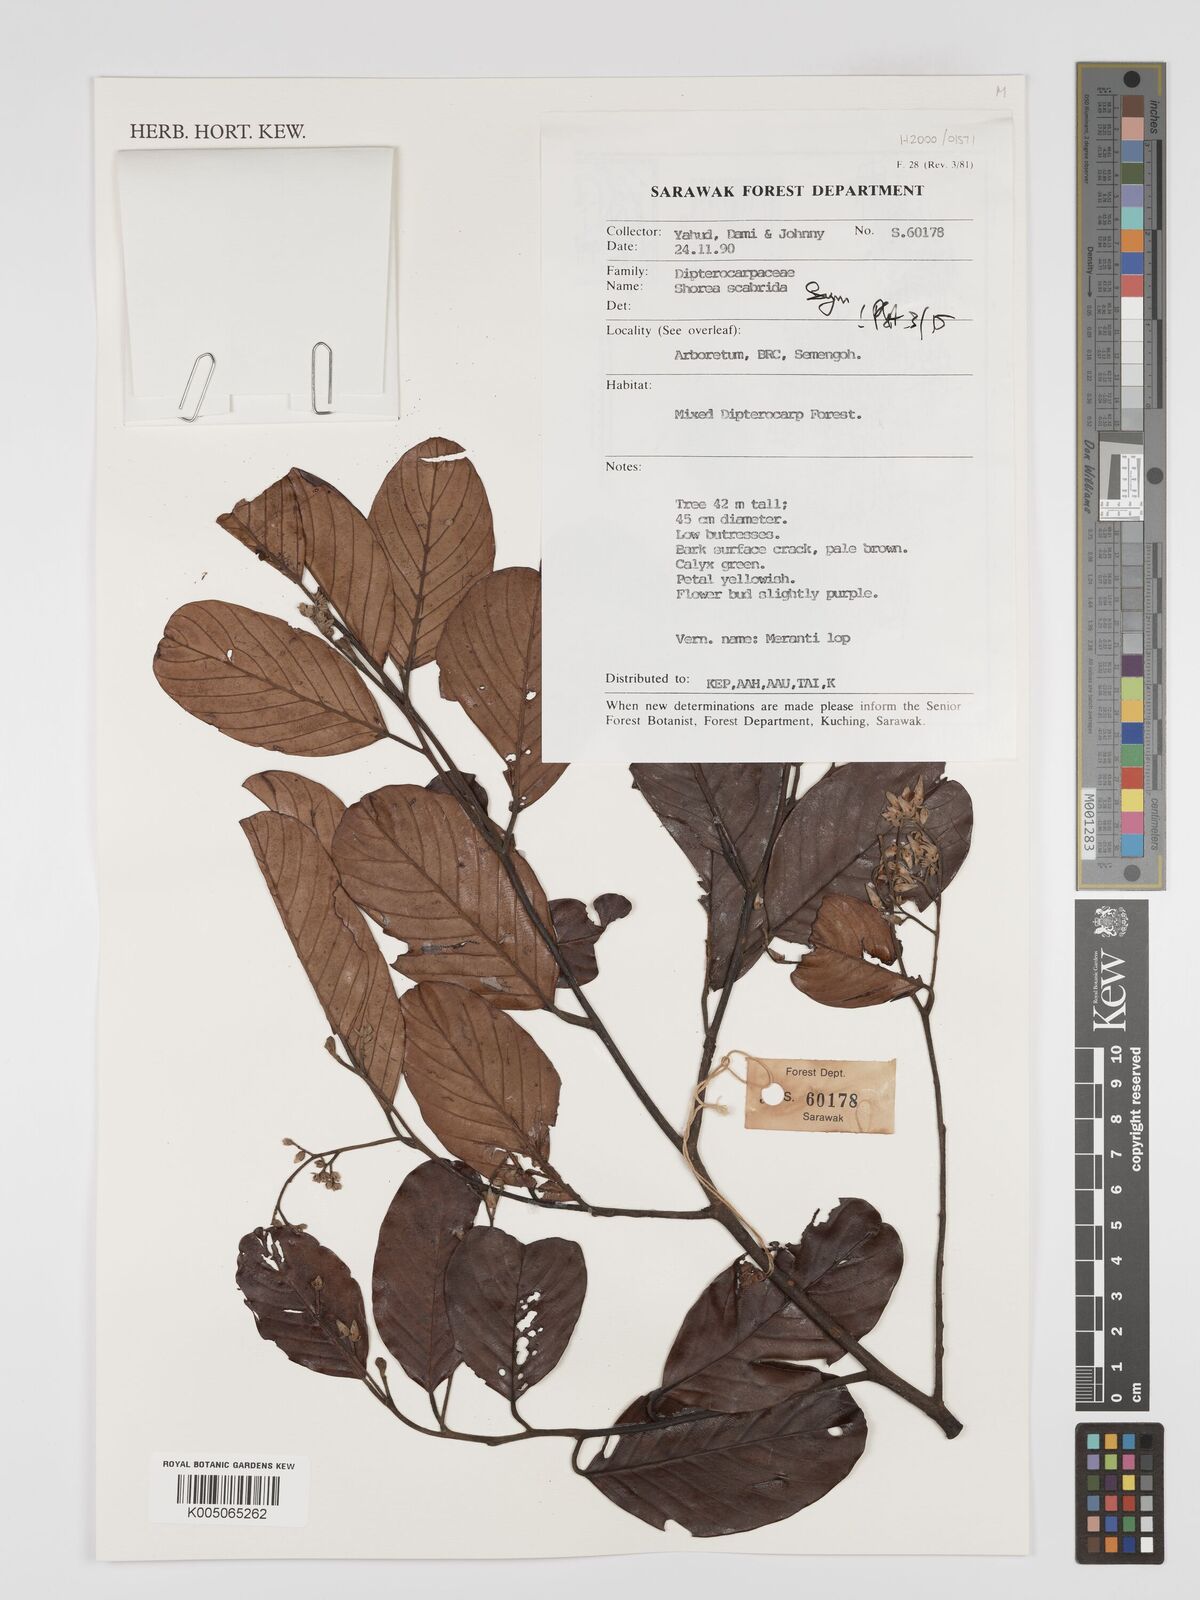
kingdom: Plantae
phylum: Tracheophyta
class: Magnoliopsida
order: Malvales
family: Dipterocarpaceae
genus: Shorea
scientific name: Shorea scabrida
